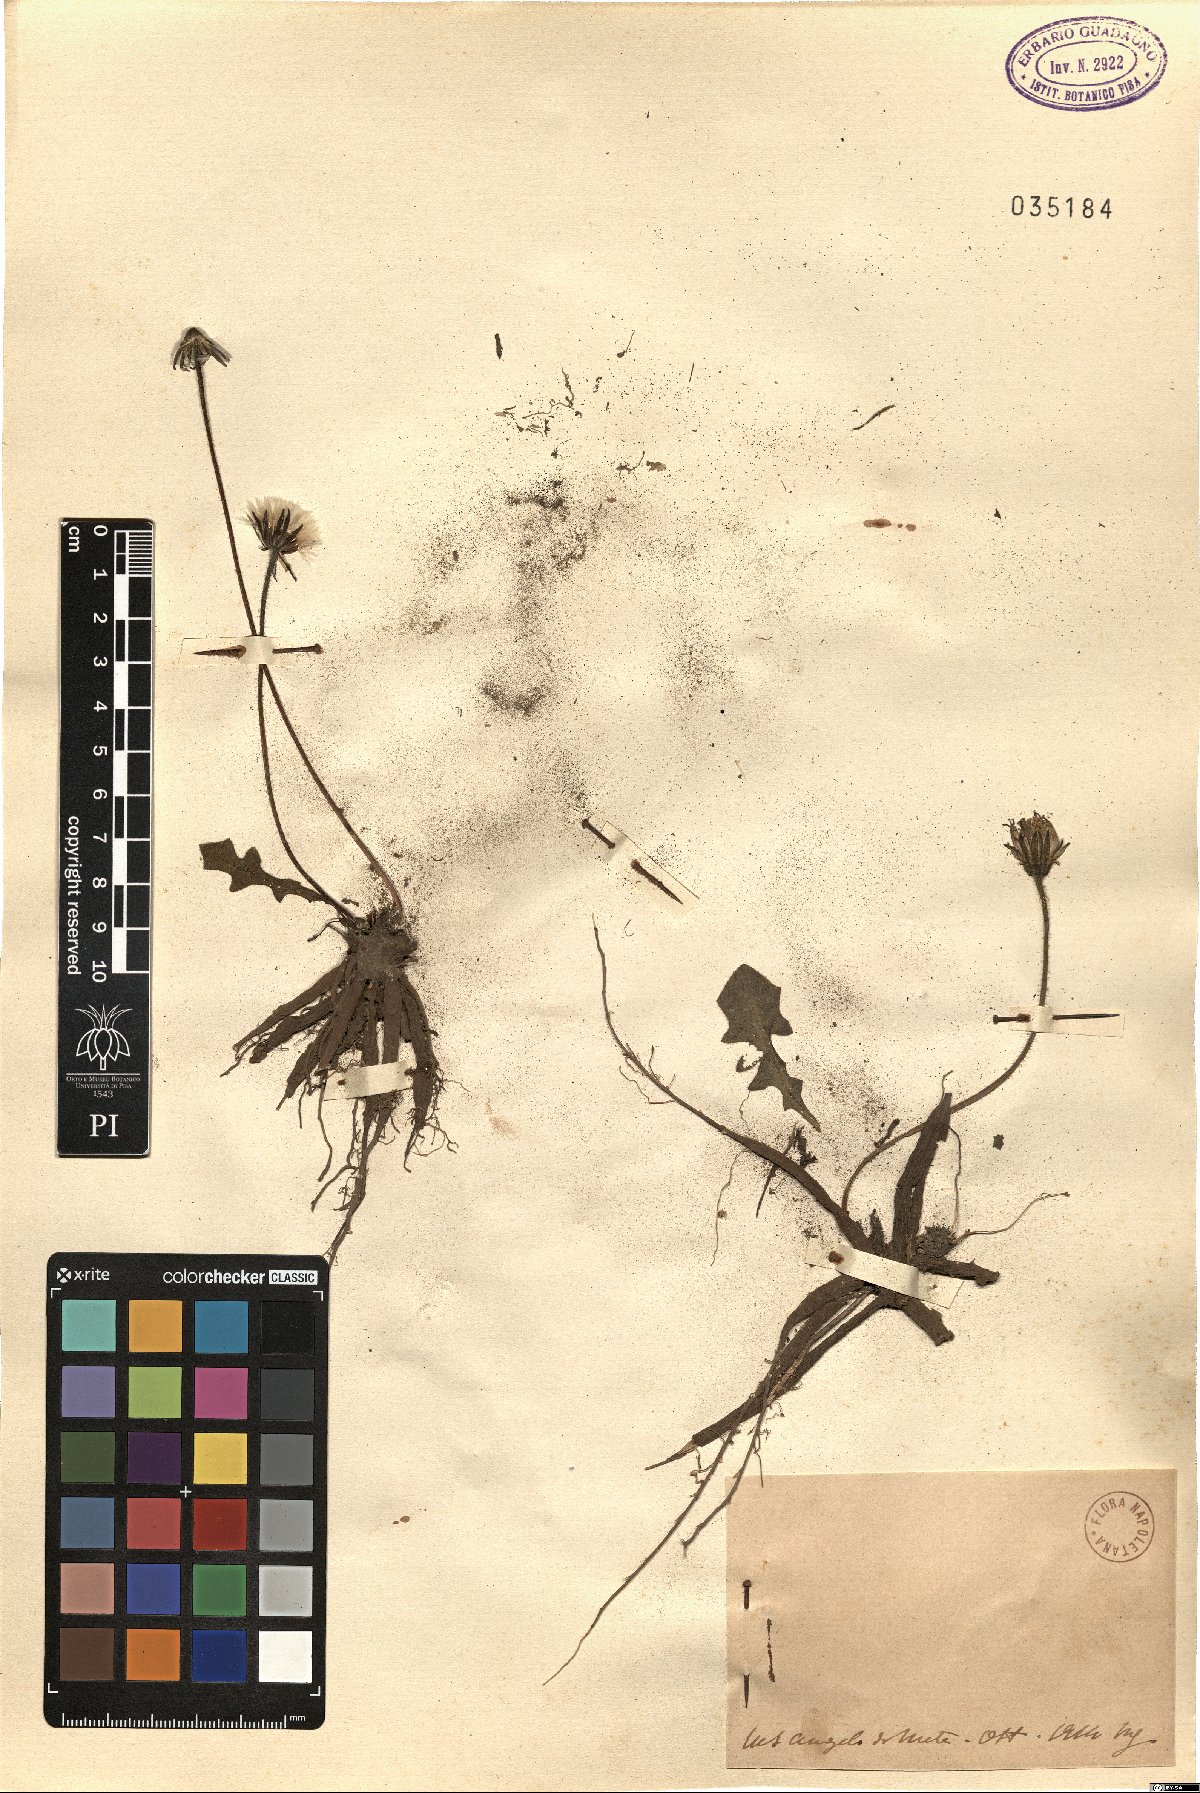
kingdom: Plantae
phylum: Tracheophyta
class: Magnoliopsida
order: Asterales
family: Asteraceae
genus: Thrincia
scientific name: Thrincia
